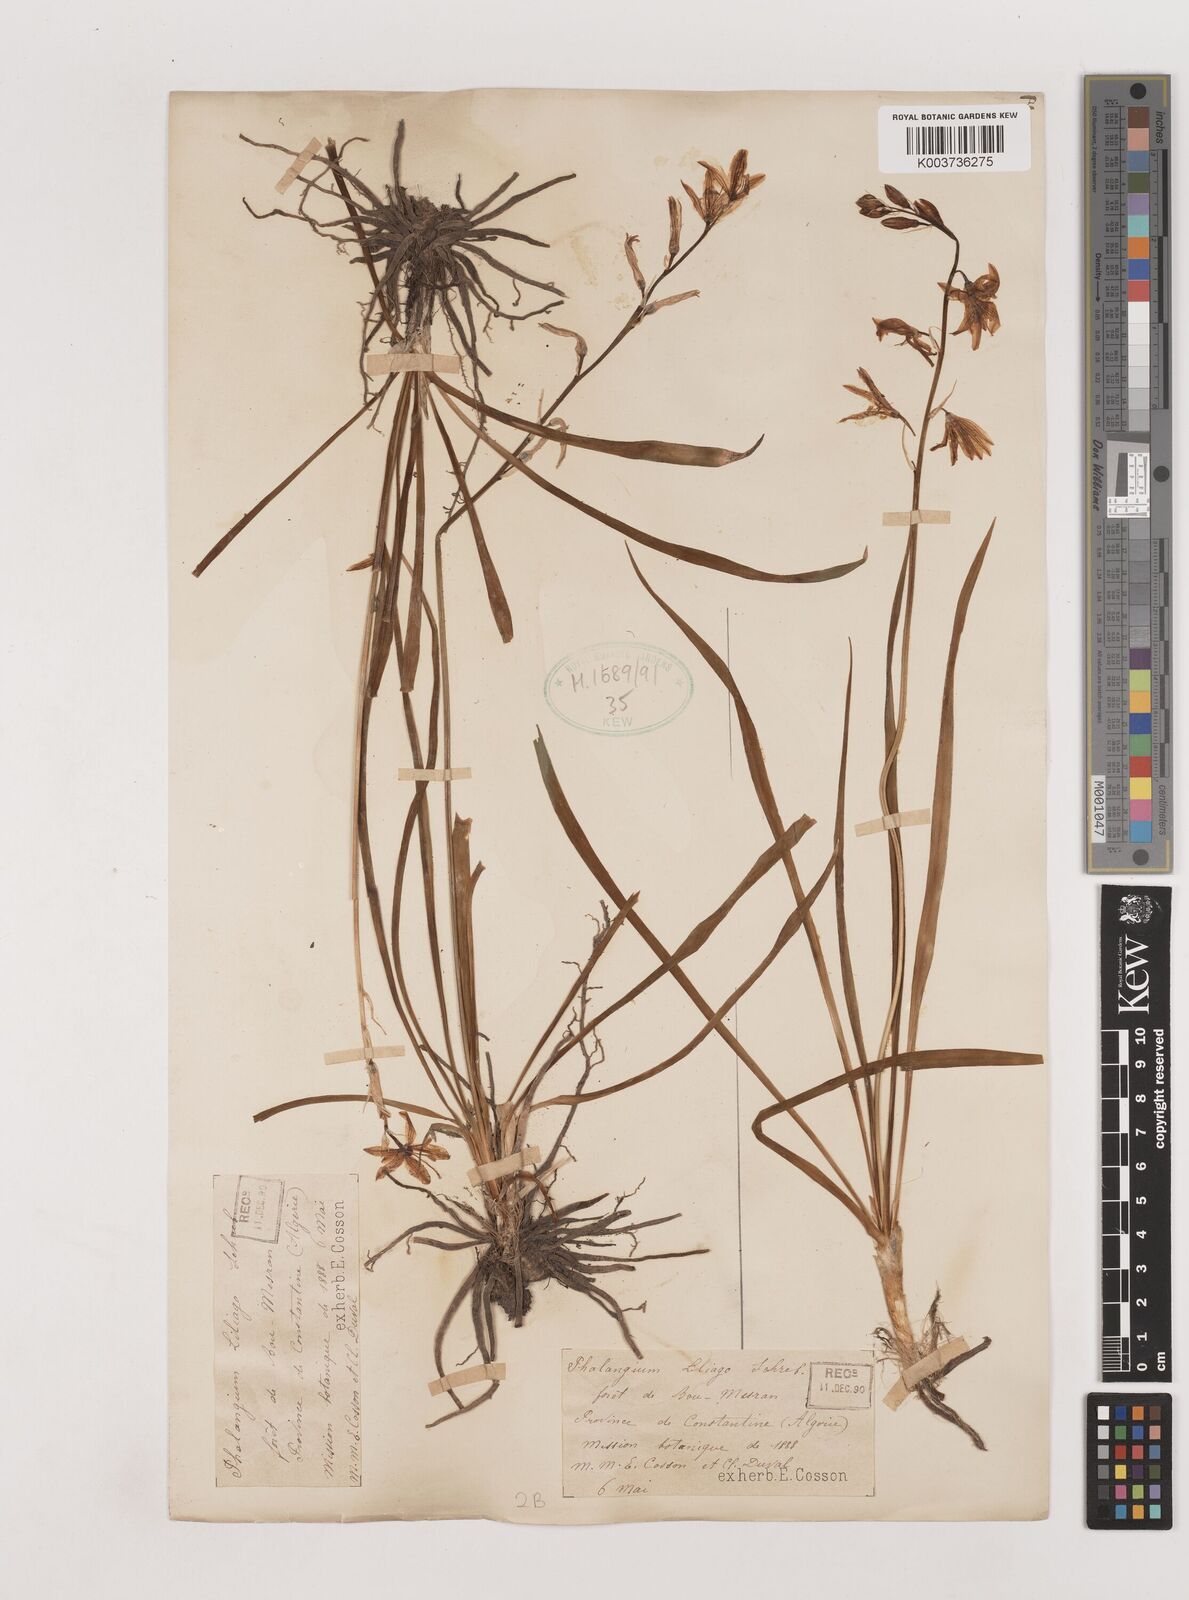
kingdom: Plantae
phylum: Tracheophyta
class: Liliopsida
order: Asparagales
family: Asparagaceae
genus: Anthericum
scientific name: Anthericum liliago
